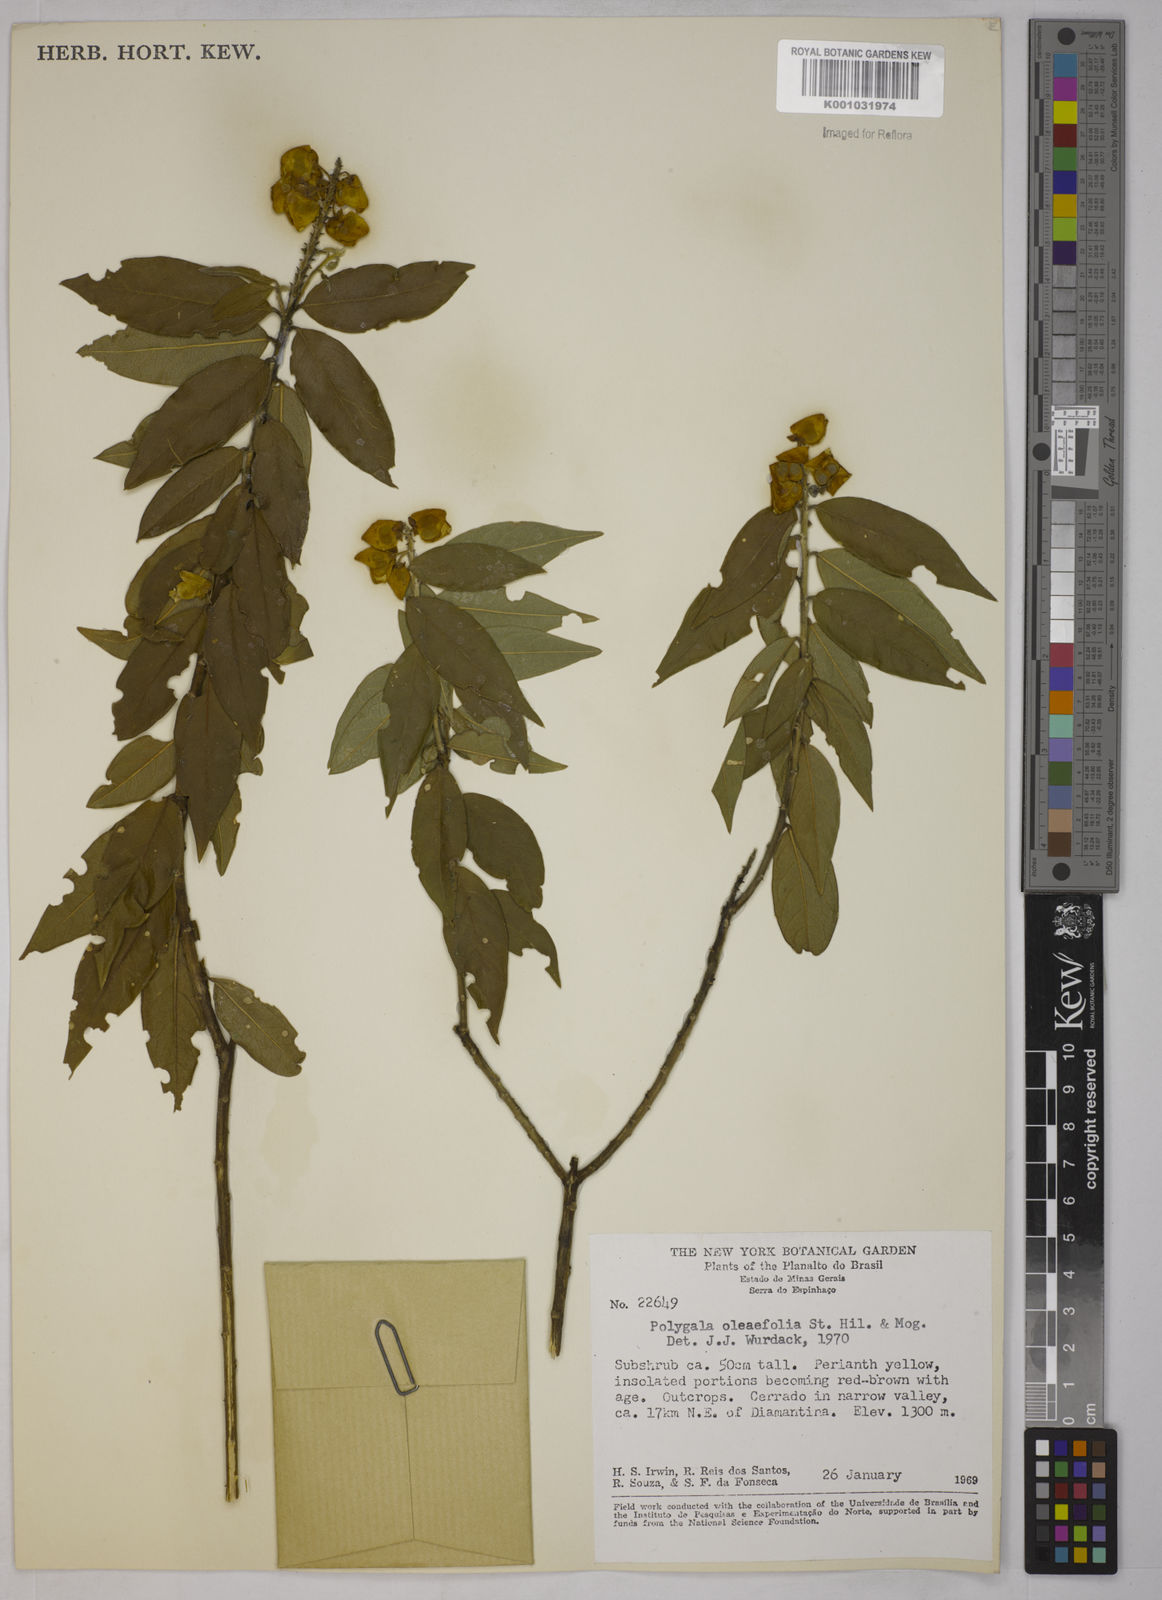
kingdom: Plantae
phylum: Tracheophyta
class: Magnoliopsida
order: Fabales
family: Polygalaceae
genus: Caamembeca
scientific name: Caamembeca oleifolia
